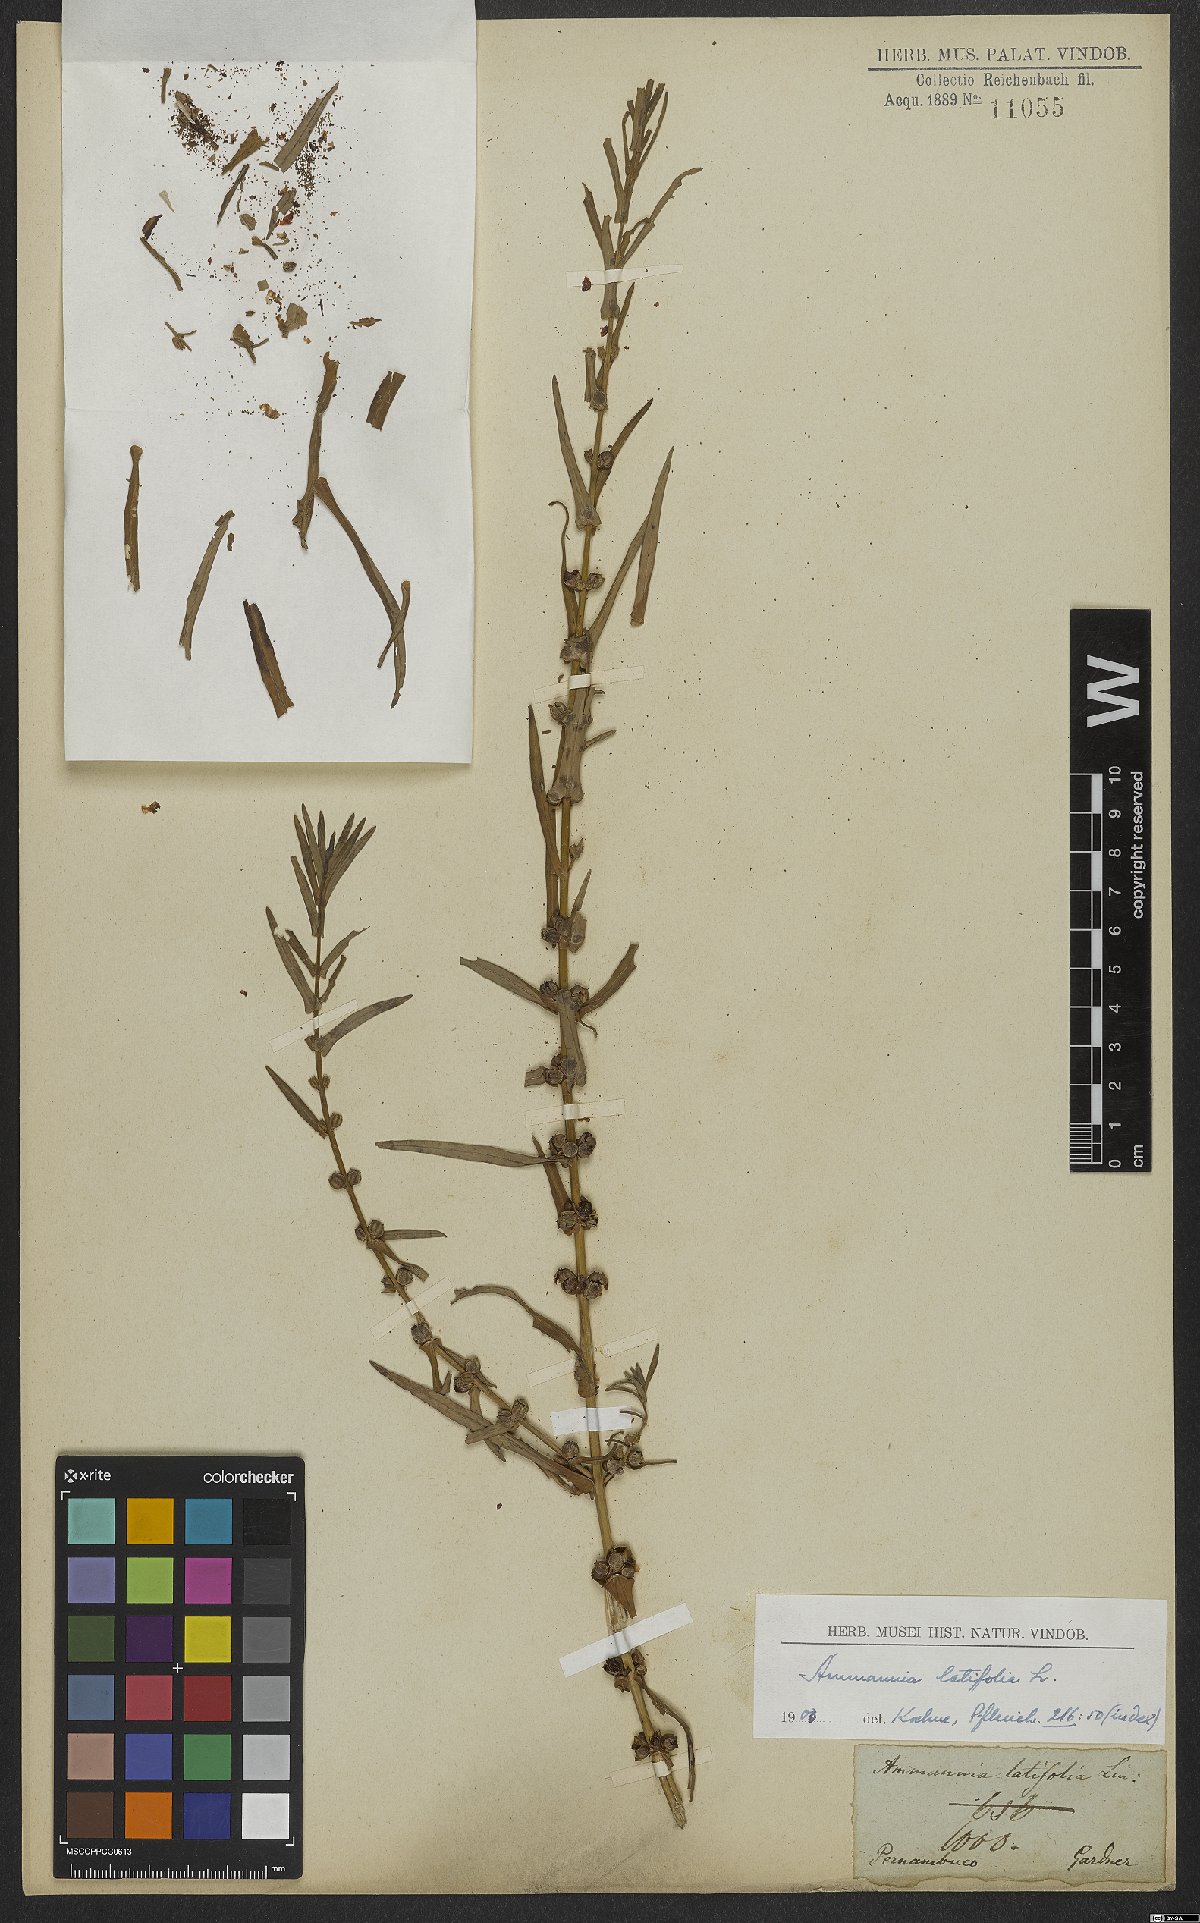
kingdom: Plantae
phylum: Tracheophyta
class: Magnoliopsida
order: Myrtales
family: Lythraceae
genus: Ammannia
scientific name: Ammannia latifolia
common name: Toothcup
